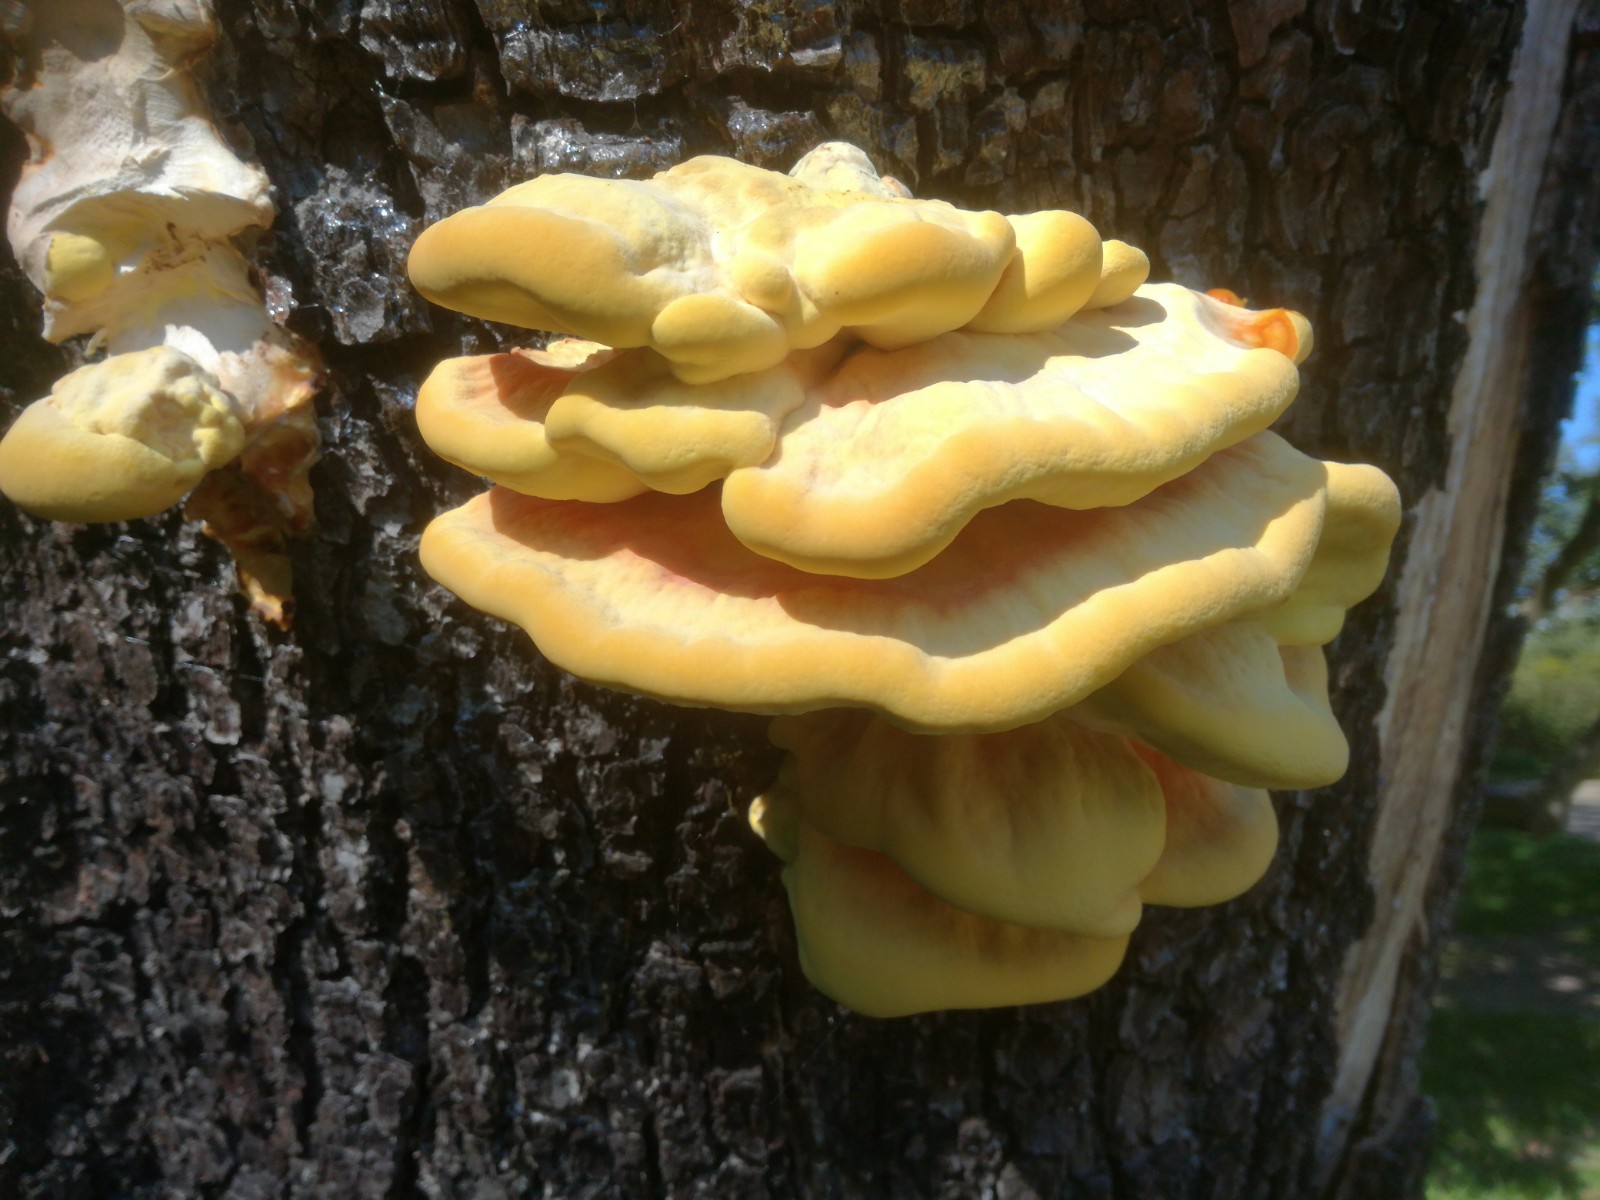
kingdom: Fungi
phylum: Basidiomycota
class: Agaricomycetes
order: Polyporales
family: Laetiporaceae
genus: Laetiporus
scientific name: Laetiporus sulphureus
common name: svovlporesvamp
